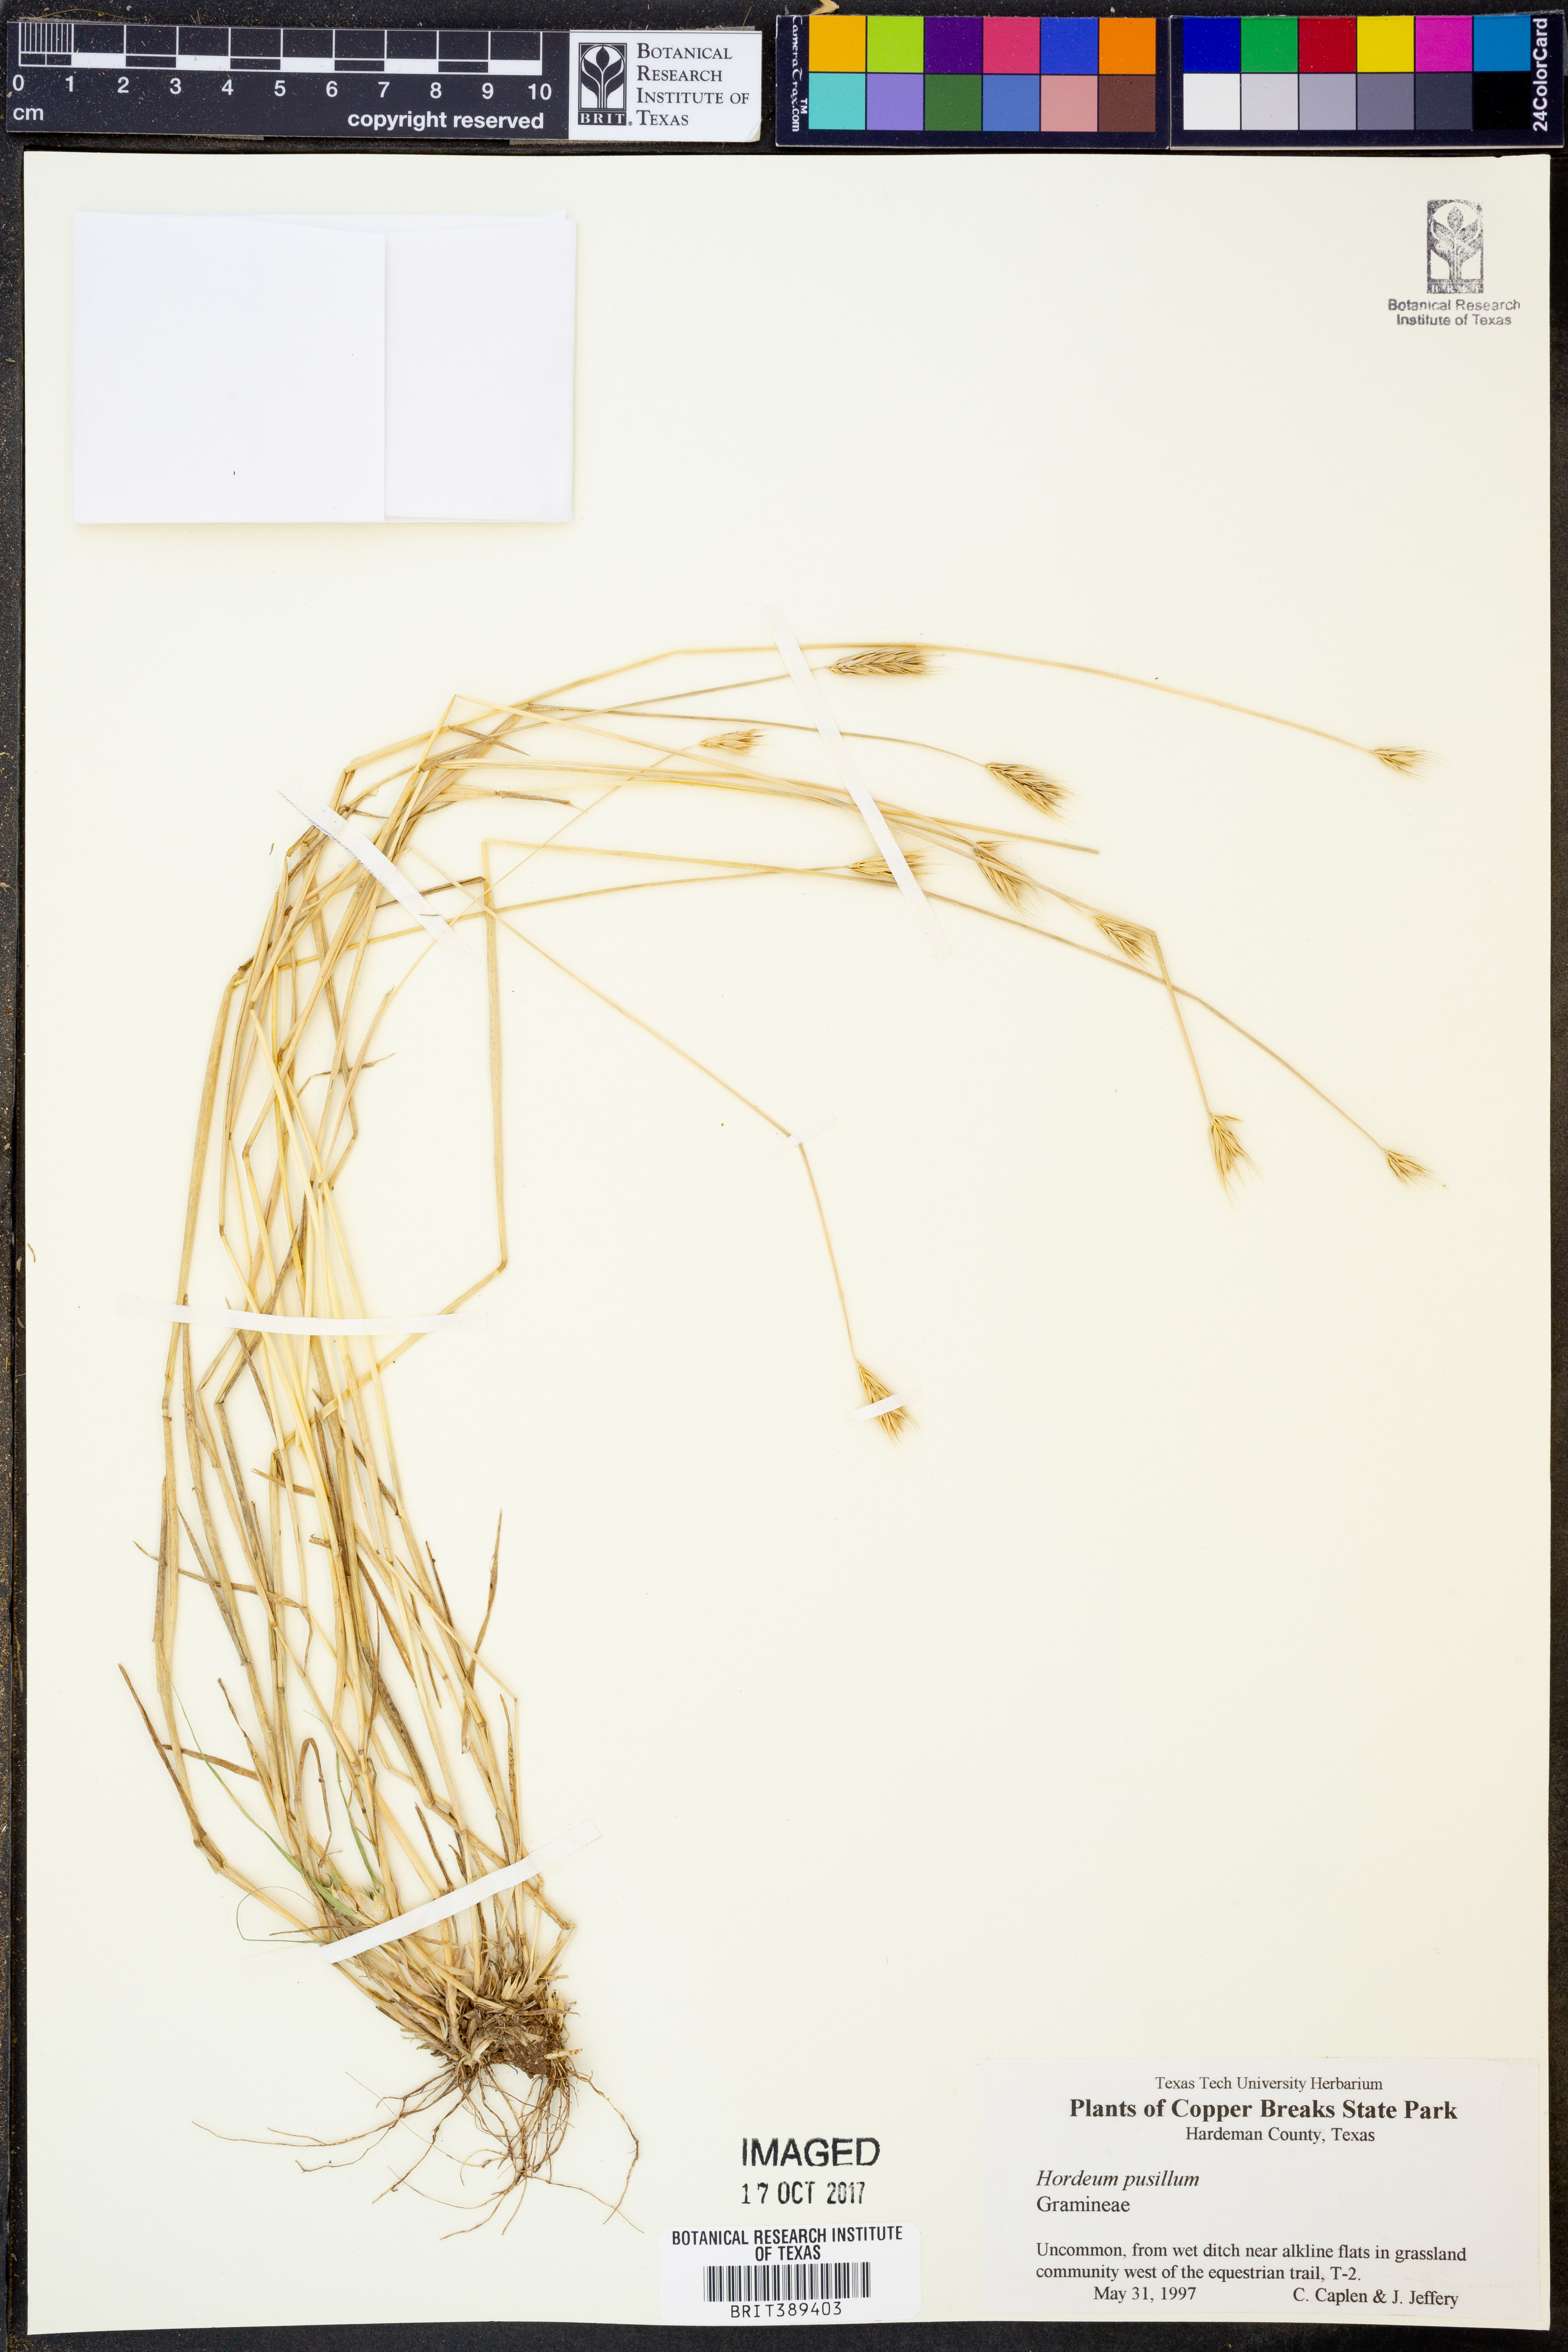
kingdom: Plantae
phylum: Tracheophyta
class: Liliopsida
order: Poales
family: Poaceae
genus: Hordeum
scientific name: Hordeum pusillum
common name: Little barley
